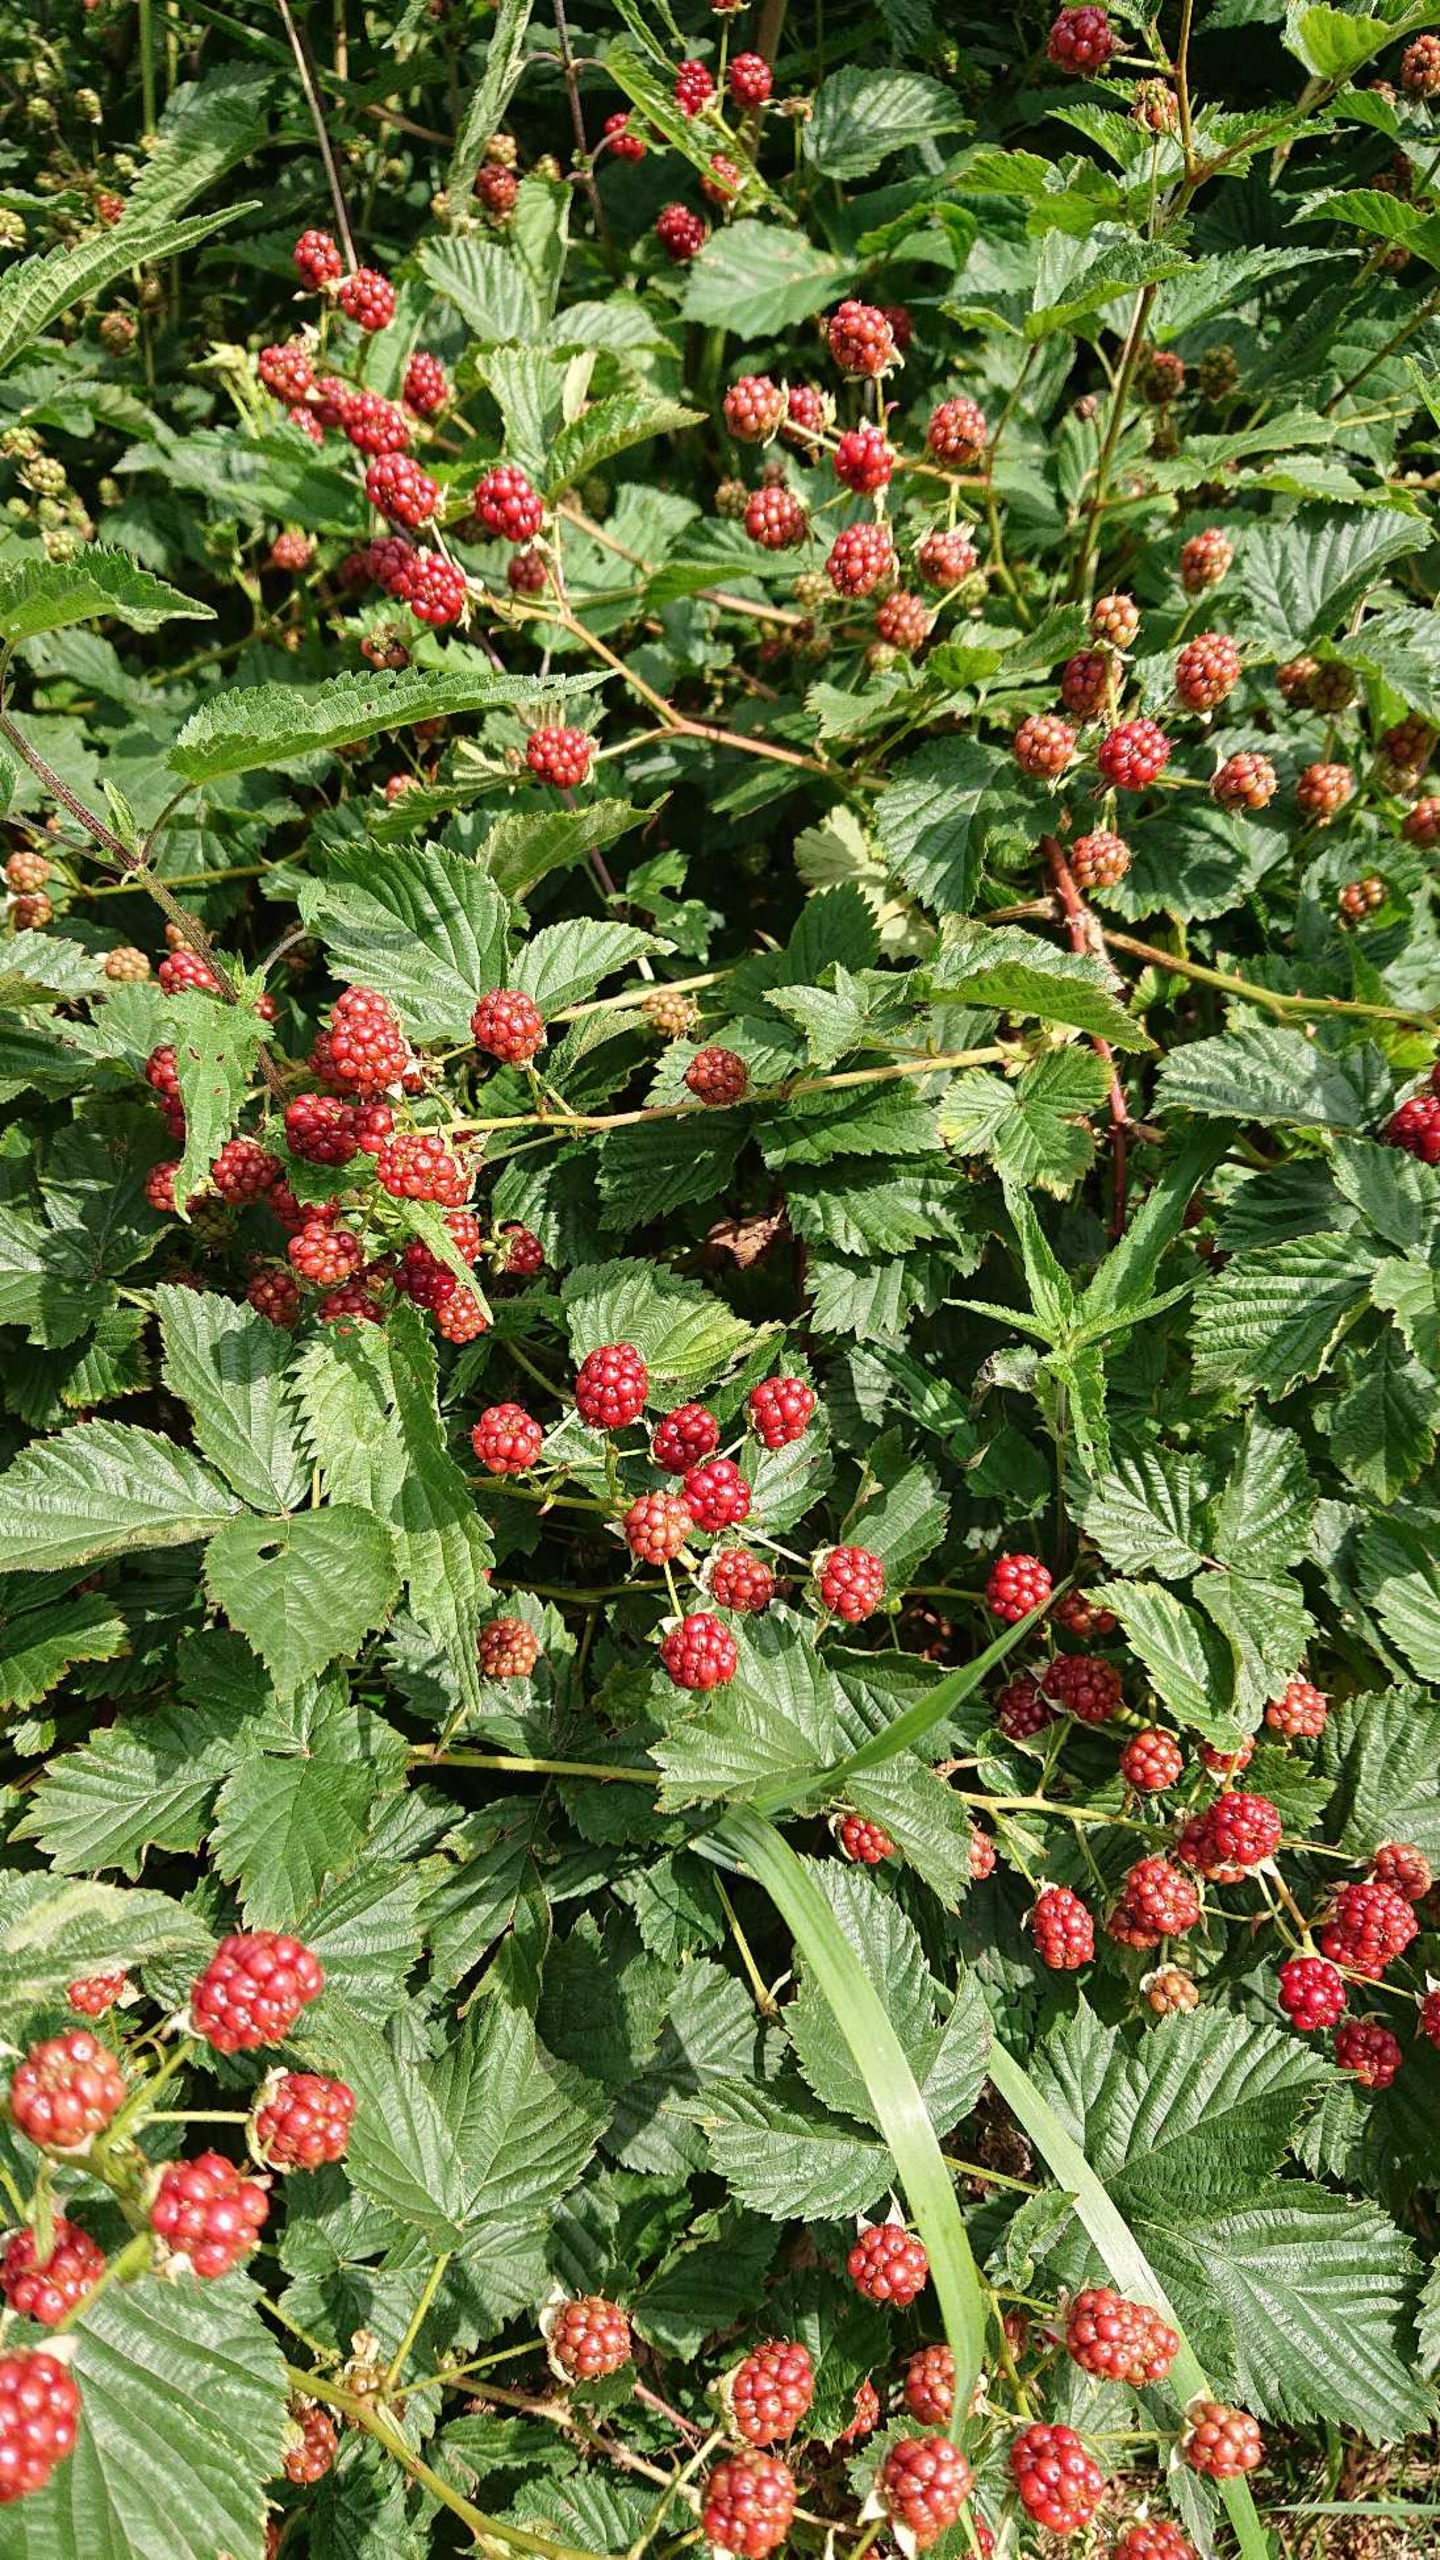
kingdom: Plantae
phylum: Tracheophyta
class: Magnoliopsida
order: Rosales
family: Rosaceae
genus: Rubus
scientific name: Rubus plicatus
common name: Almindelig brombær
